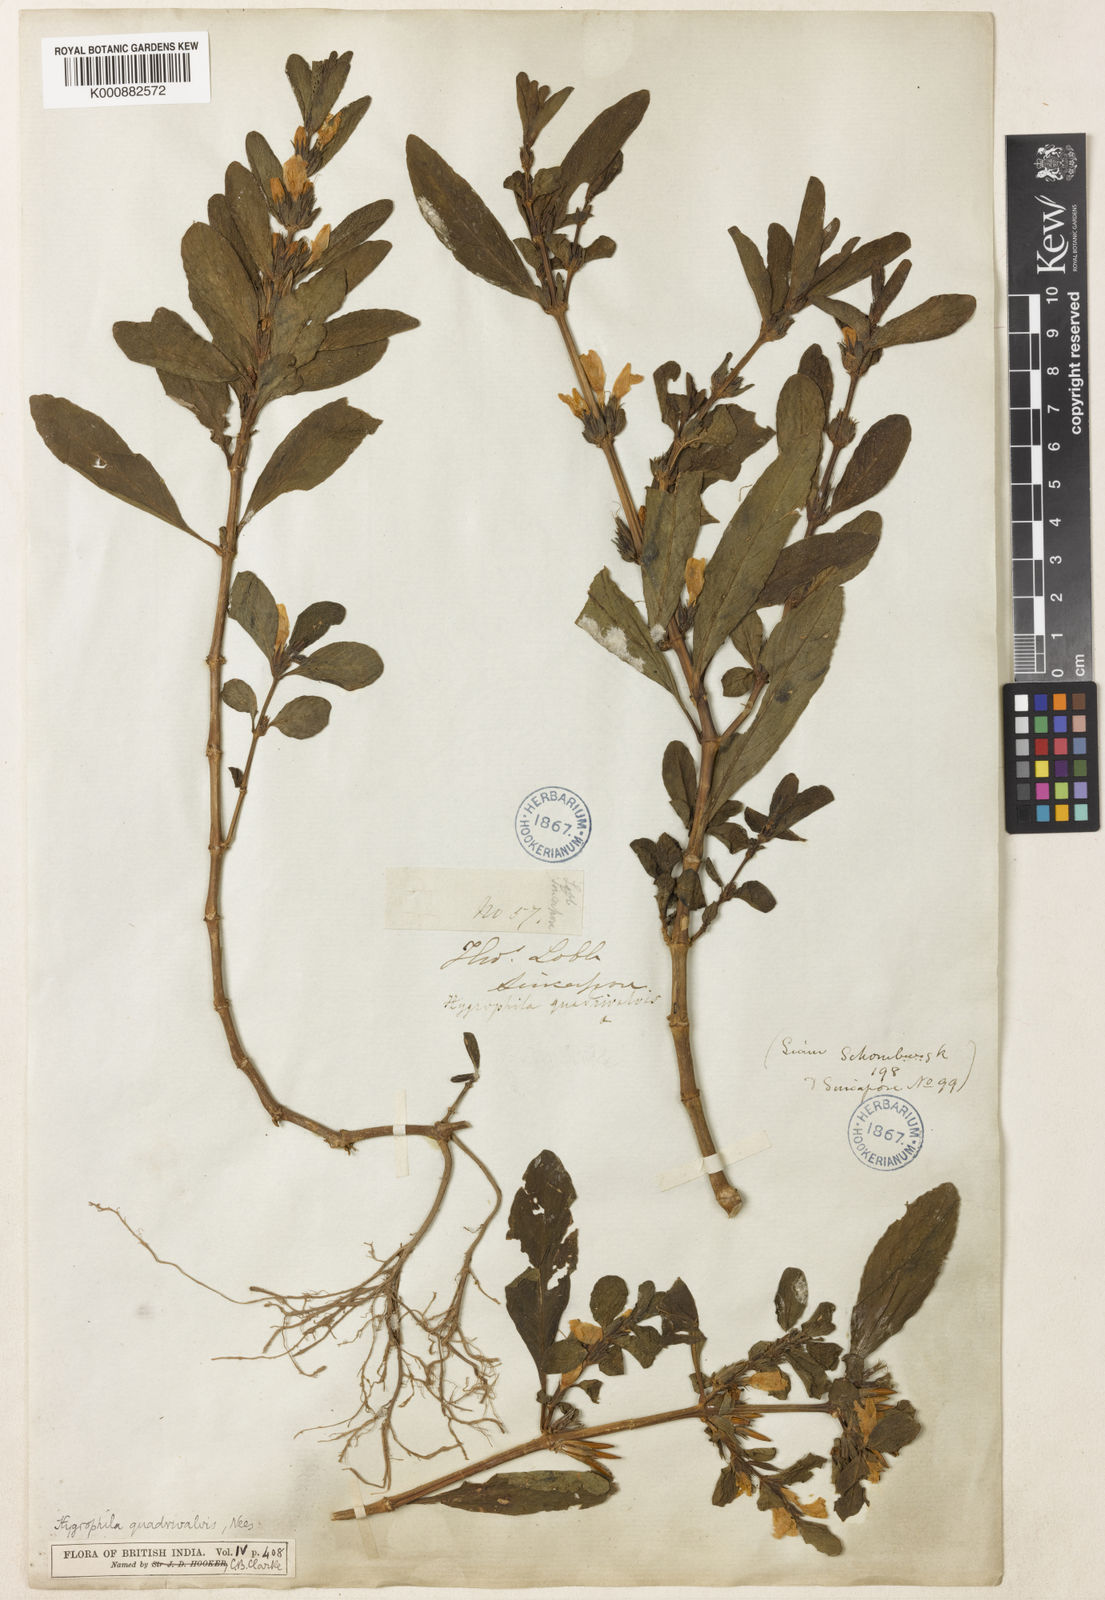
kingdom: Plantae
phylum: Tracheophyta
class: Magnoliopsida
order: Lamiales
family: Acanthaceae
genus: Hygrophila
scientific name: Hygrophila ringens
